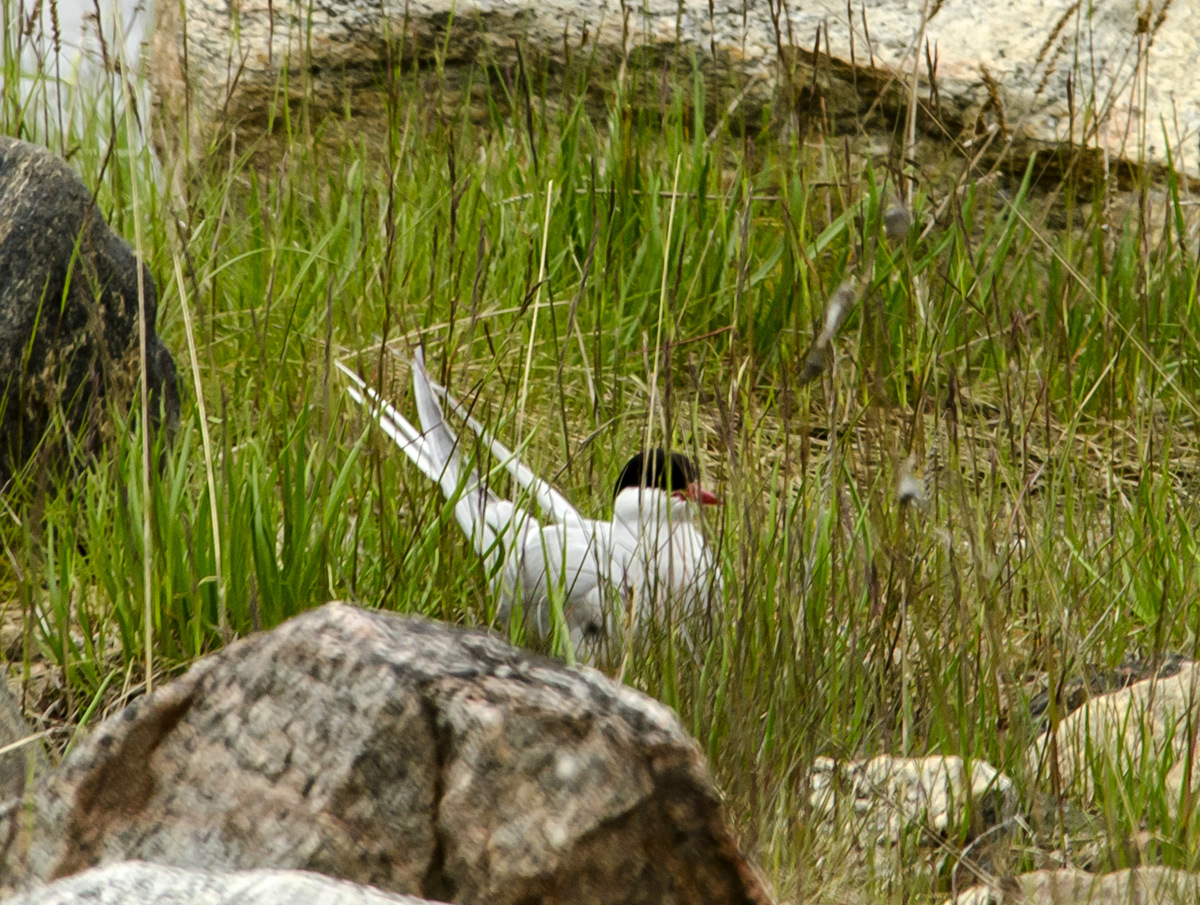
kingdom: Animalia
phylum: Chordata
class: Aves
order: Charadriiformes
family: Laridae
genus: Sterna
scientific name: Sterna paradisaea
